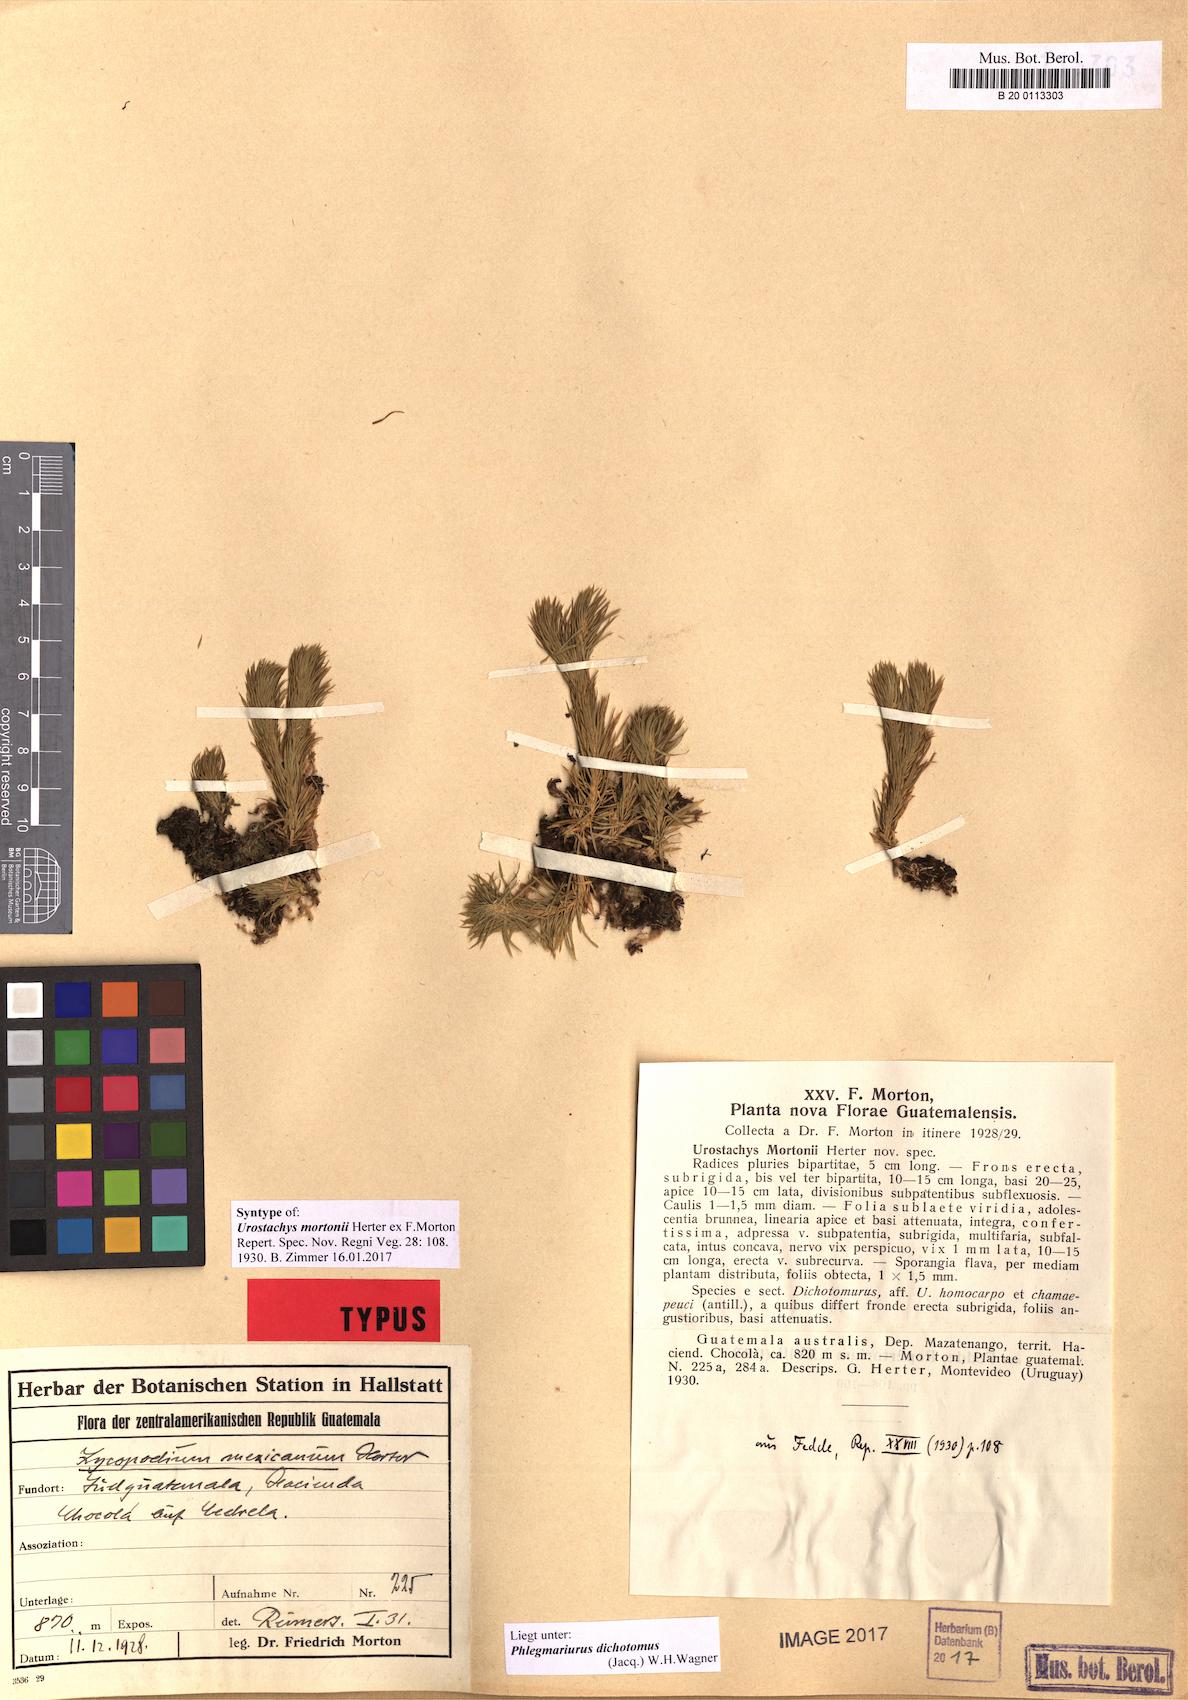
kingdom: Plantae
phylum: Tracheophyta
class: Lycopodiopsida
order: Lycopodiales
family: Lycopodiaceae
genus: Phlegmariurus
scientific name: Phlegmariurus dichotomus
